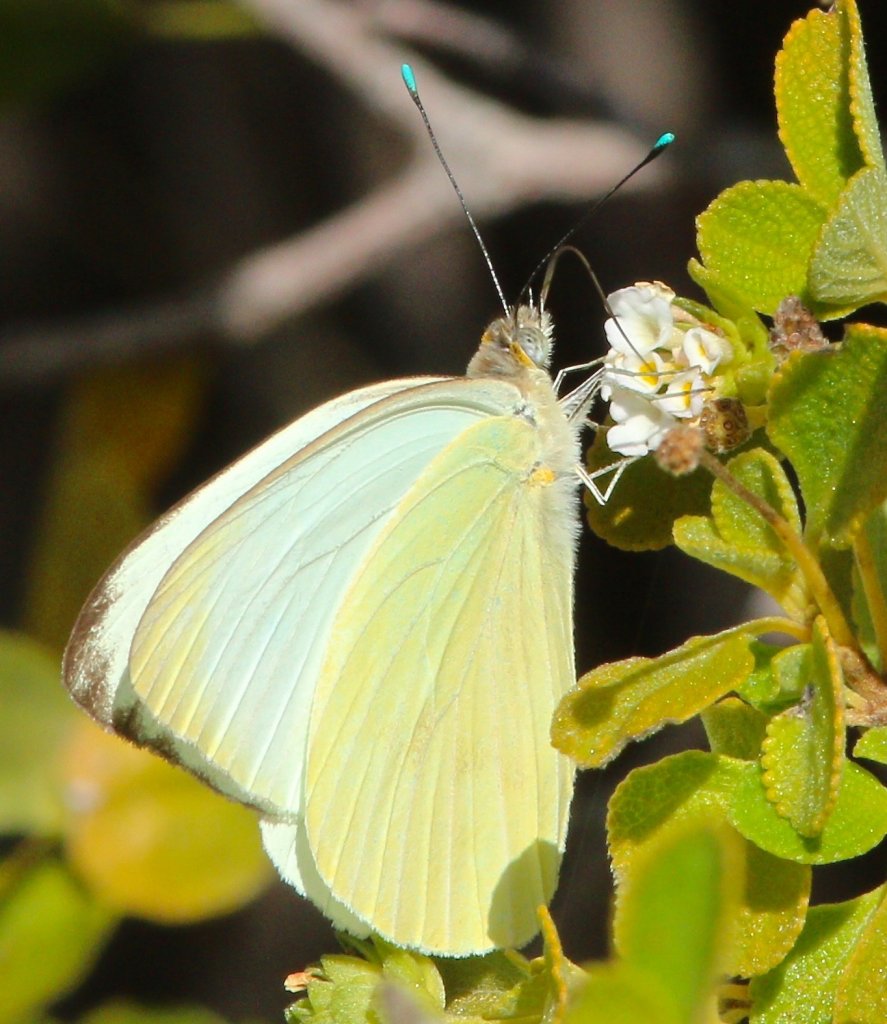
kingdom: Animalia
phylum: Arthropoda
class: Insecta
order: Lepidoptera
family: Pieridae
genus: Ascia
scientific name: Ascia monuste
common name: Great Southern White
